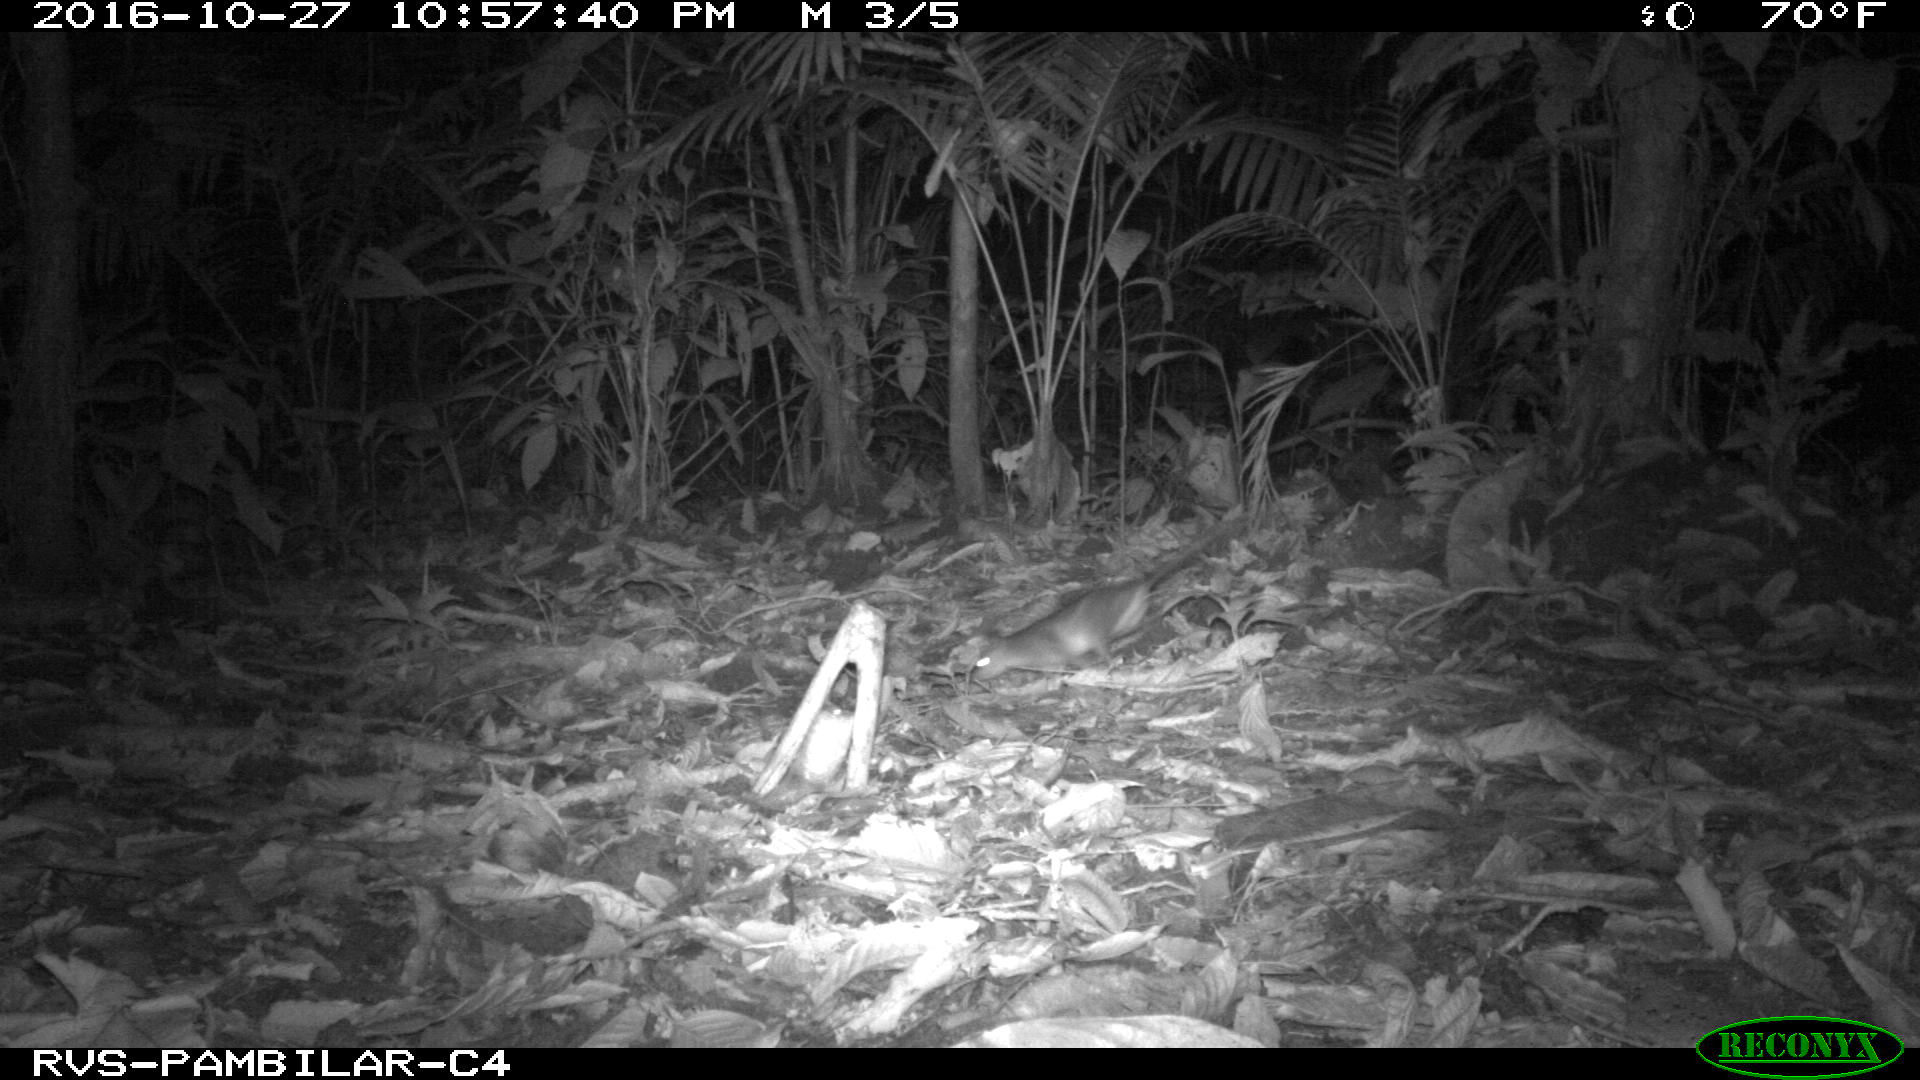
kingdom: Animalia
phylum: Chordata
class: Mammalia
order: Rodentia
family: Echimyidae
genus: Proechimys
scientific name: Proechimys
